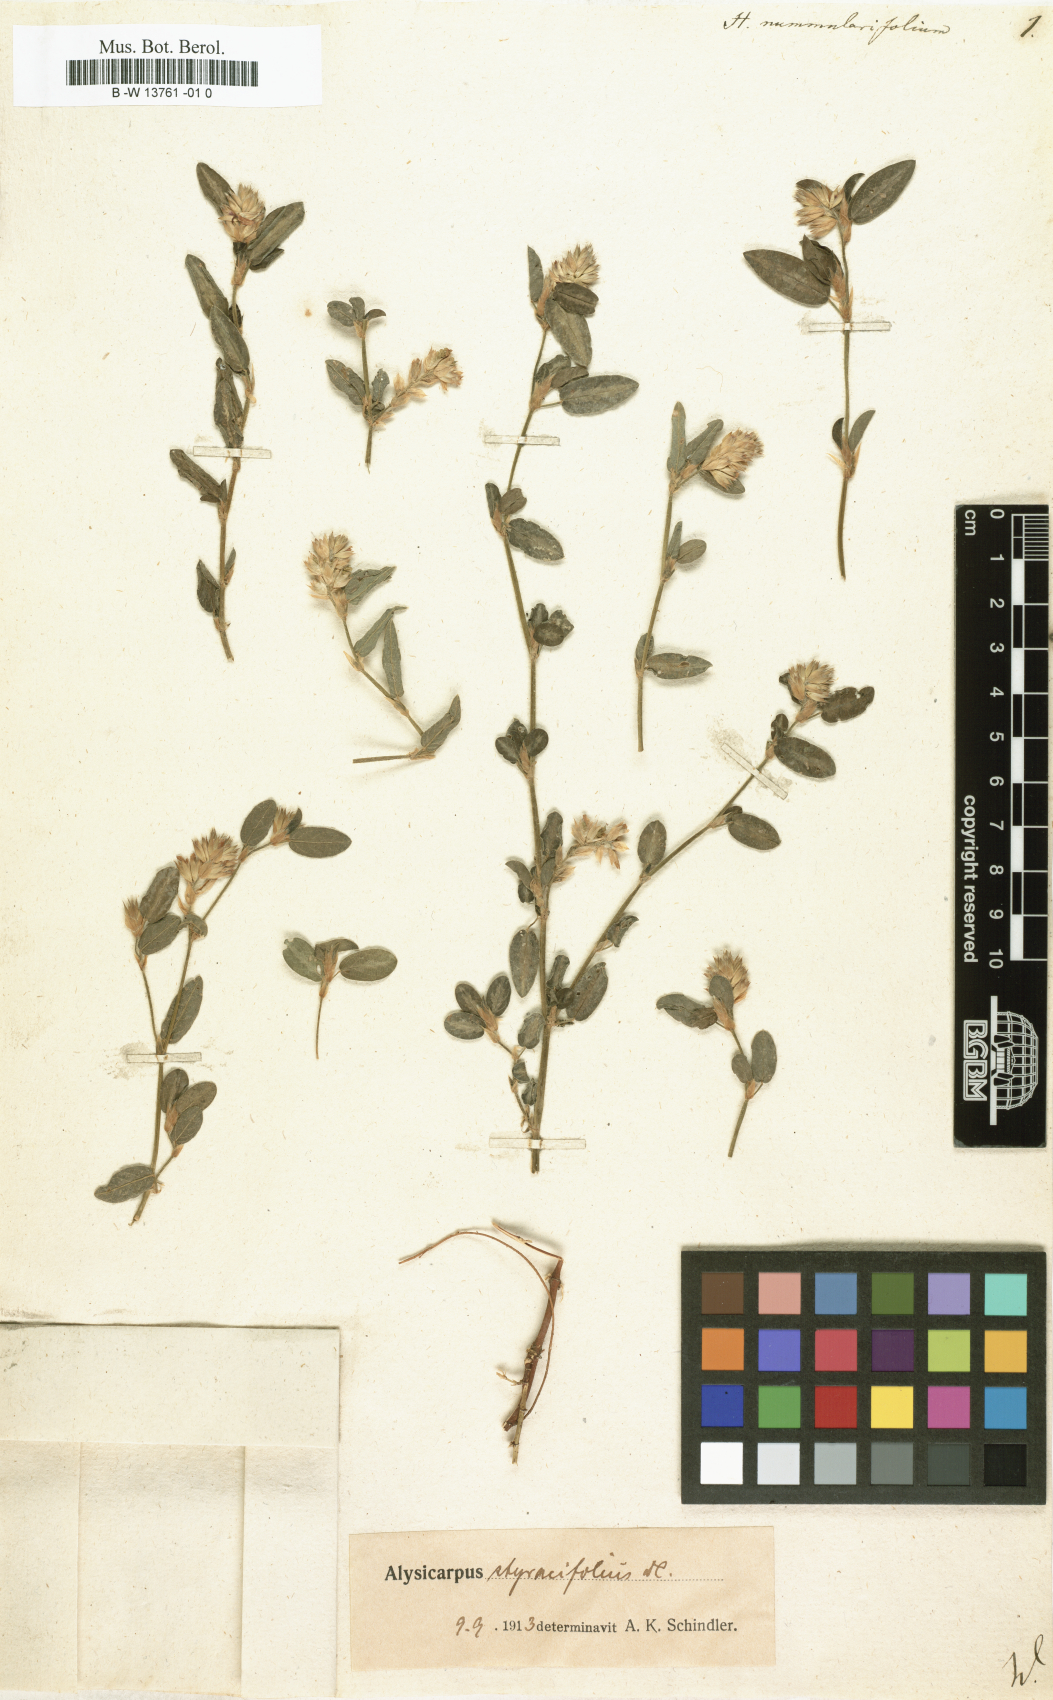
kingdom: Plantae
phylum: Tracheophyta
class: Magnoliopsida
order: Fabales
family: Fabaceae
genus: Indigofera
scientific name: Indigofera nummulariifolia
